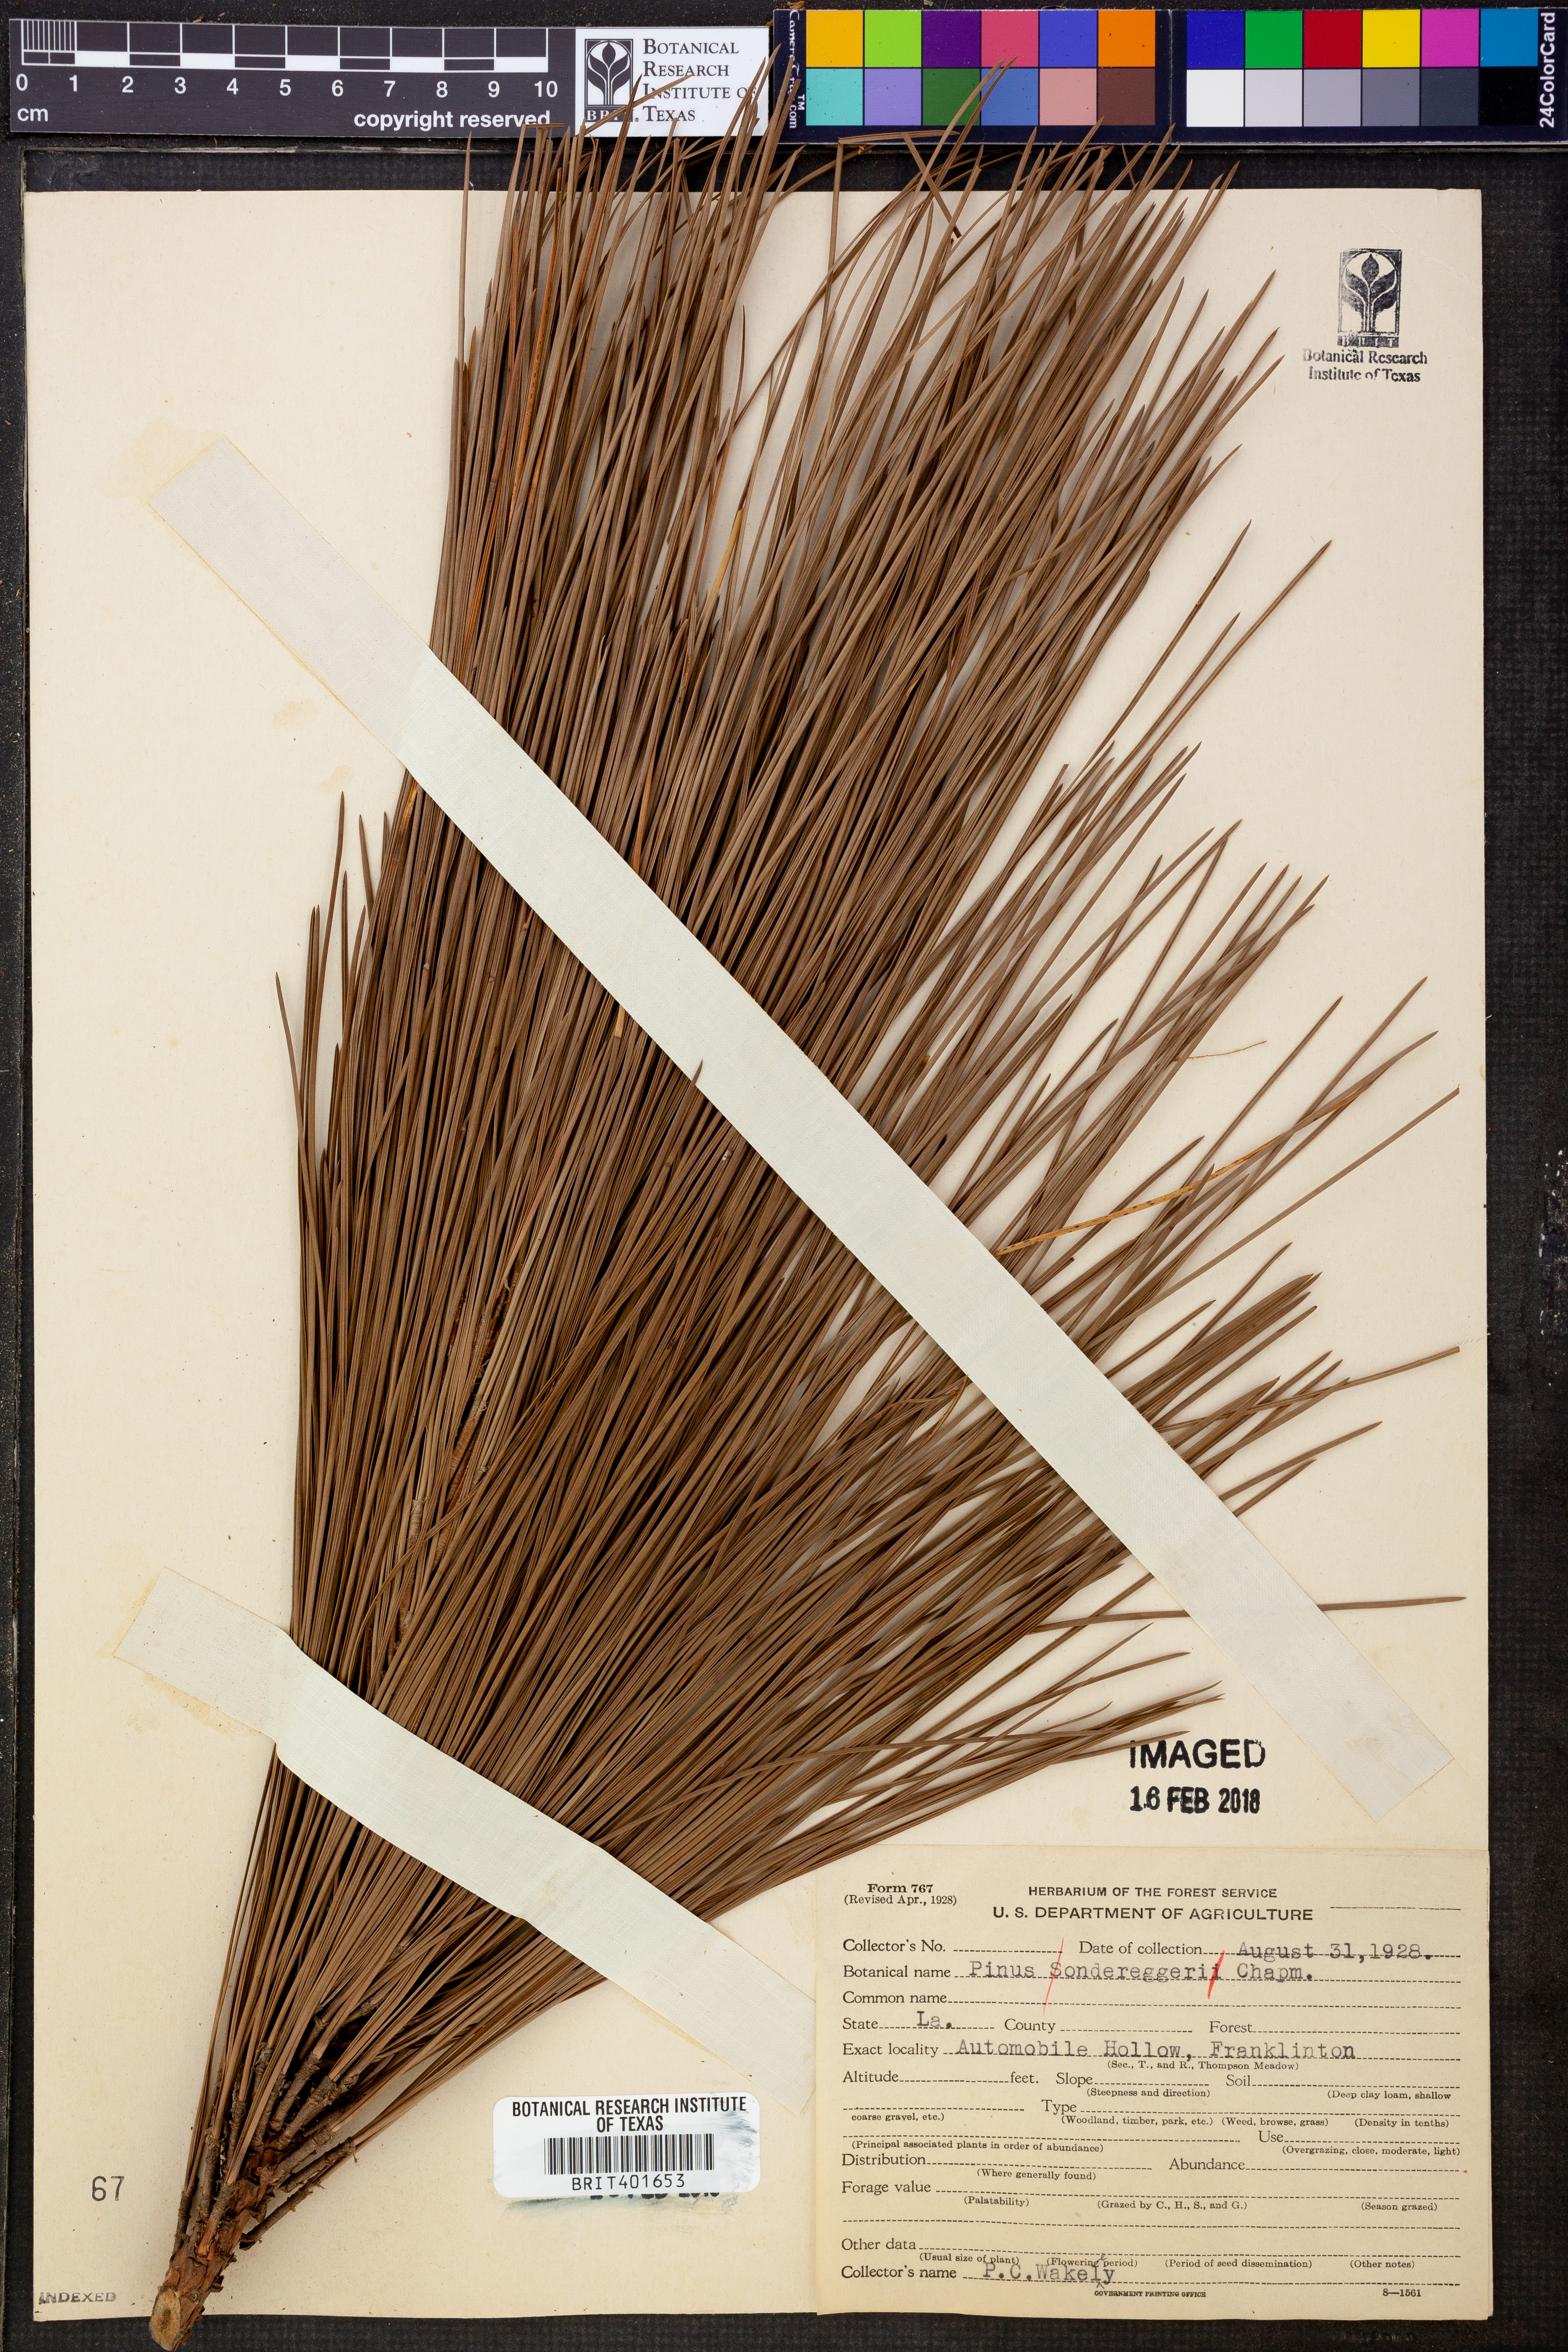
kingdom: Plantae
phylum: Tracheophyta
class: Pinopsida
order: Pinales
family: Pinaceae
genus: Pinus
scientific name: Pinus sondereggeri
